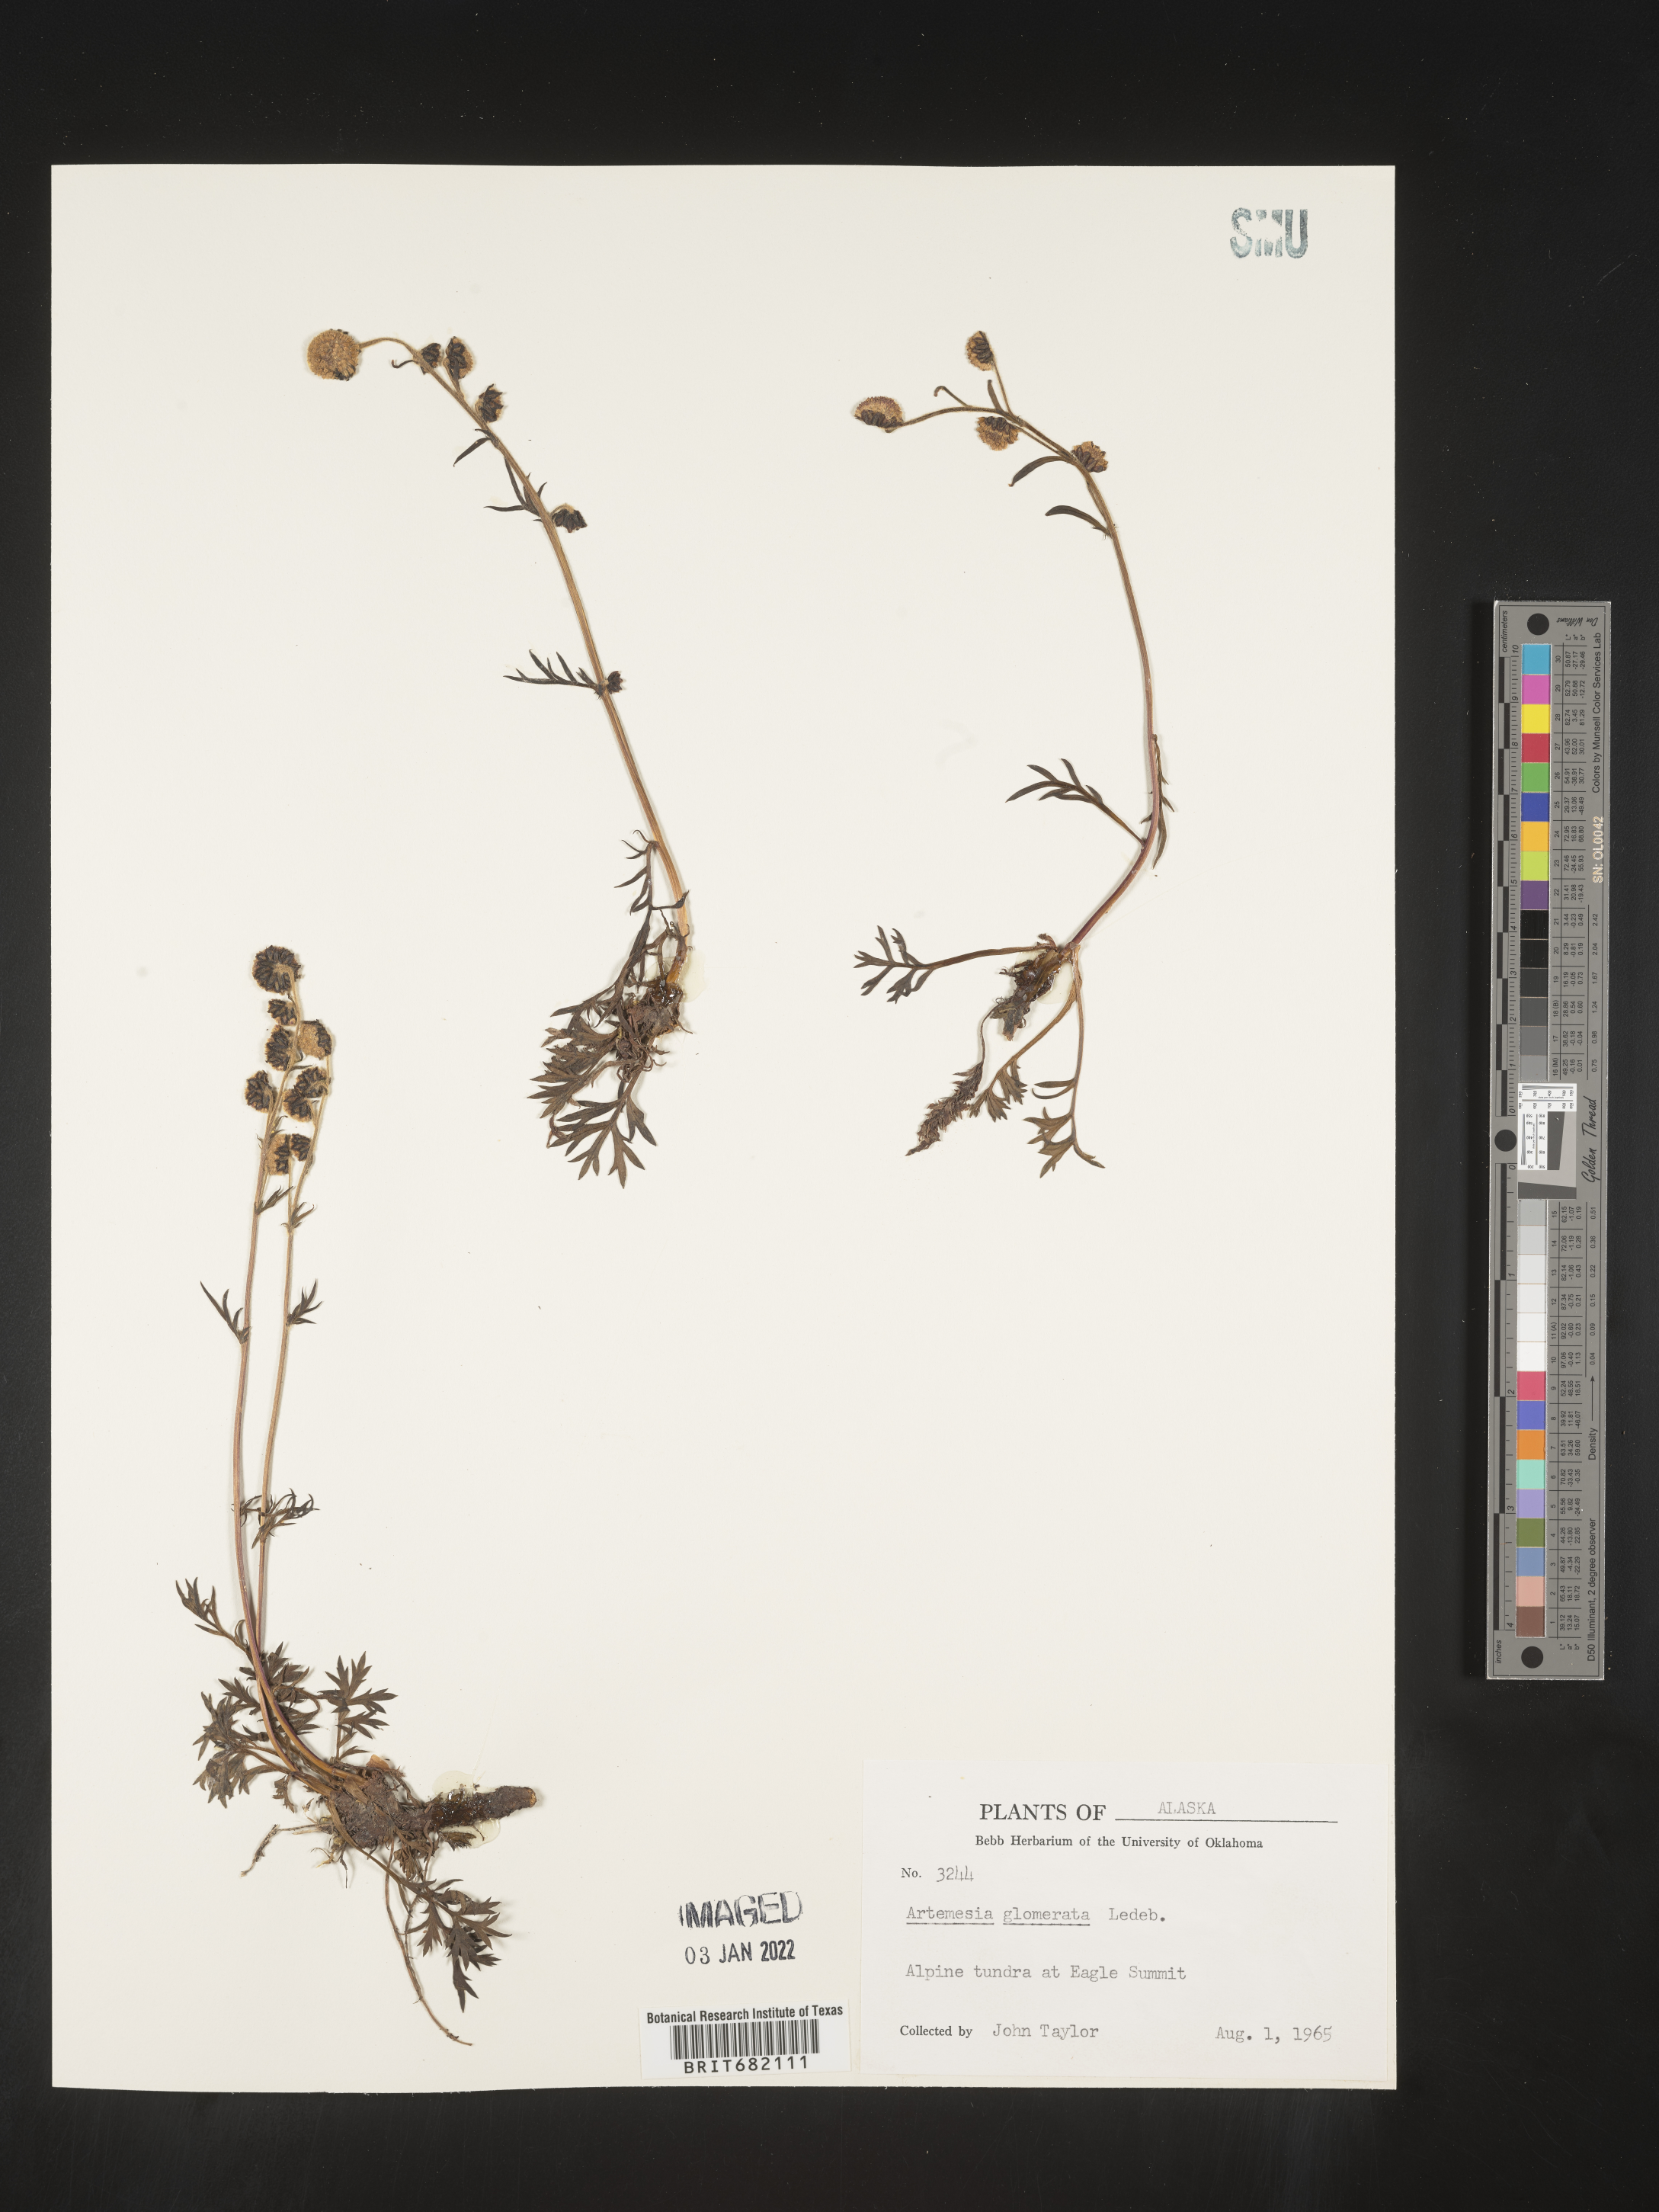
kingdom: Plantae
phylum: Tracheophyta
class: Magnoliopsida
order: Asterales
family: Asteraceae
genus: Artemisia
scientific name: Artemisia glomerata
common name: Pacific alpine wormwood
